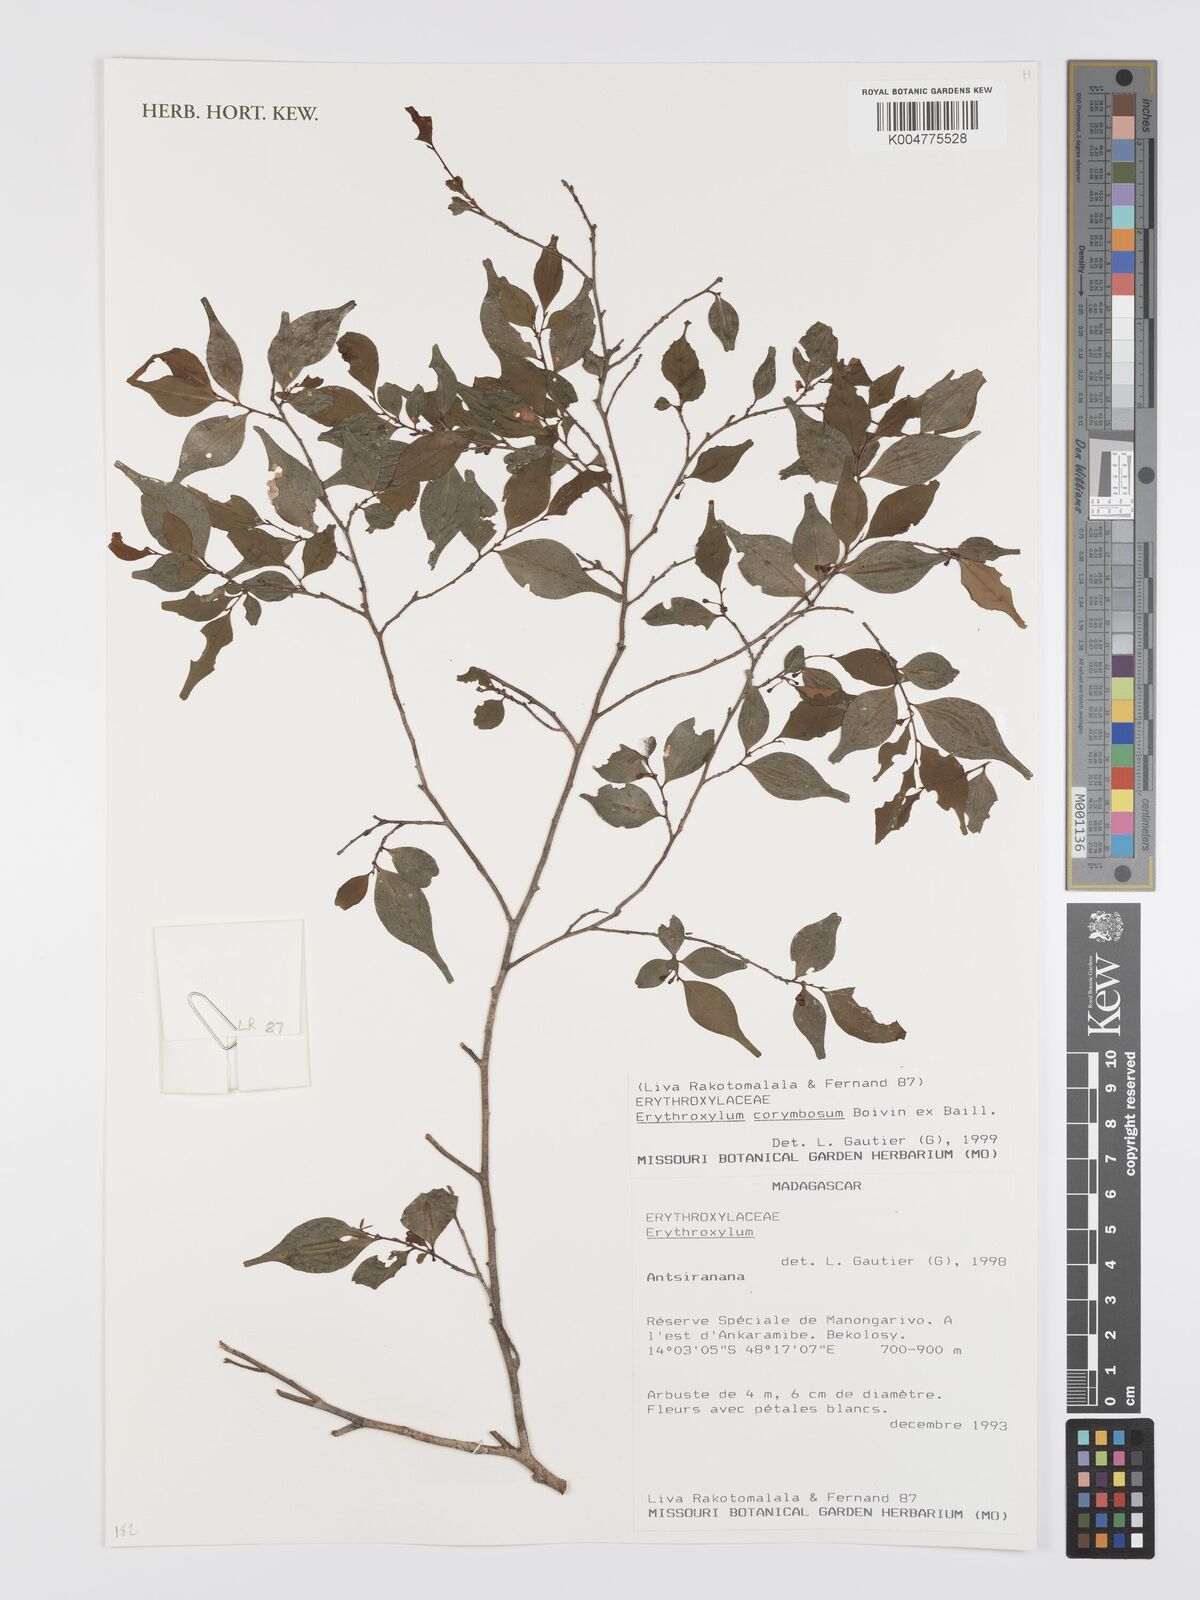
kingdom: Plantae
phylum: Tracheophyta
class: Magnoliopsida
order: Malpighiales
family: Erythroxylaceae
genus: Erythroxylum
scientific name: Erythroxylum corymbosum
